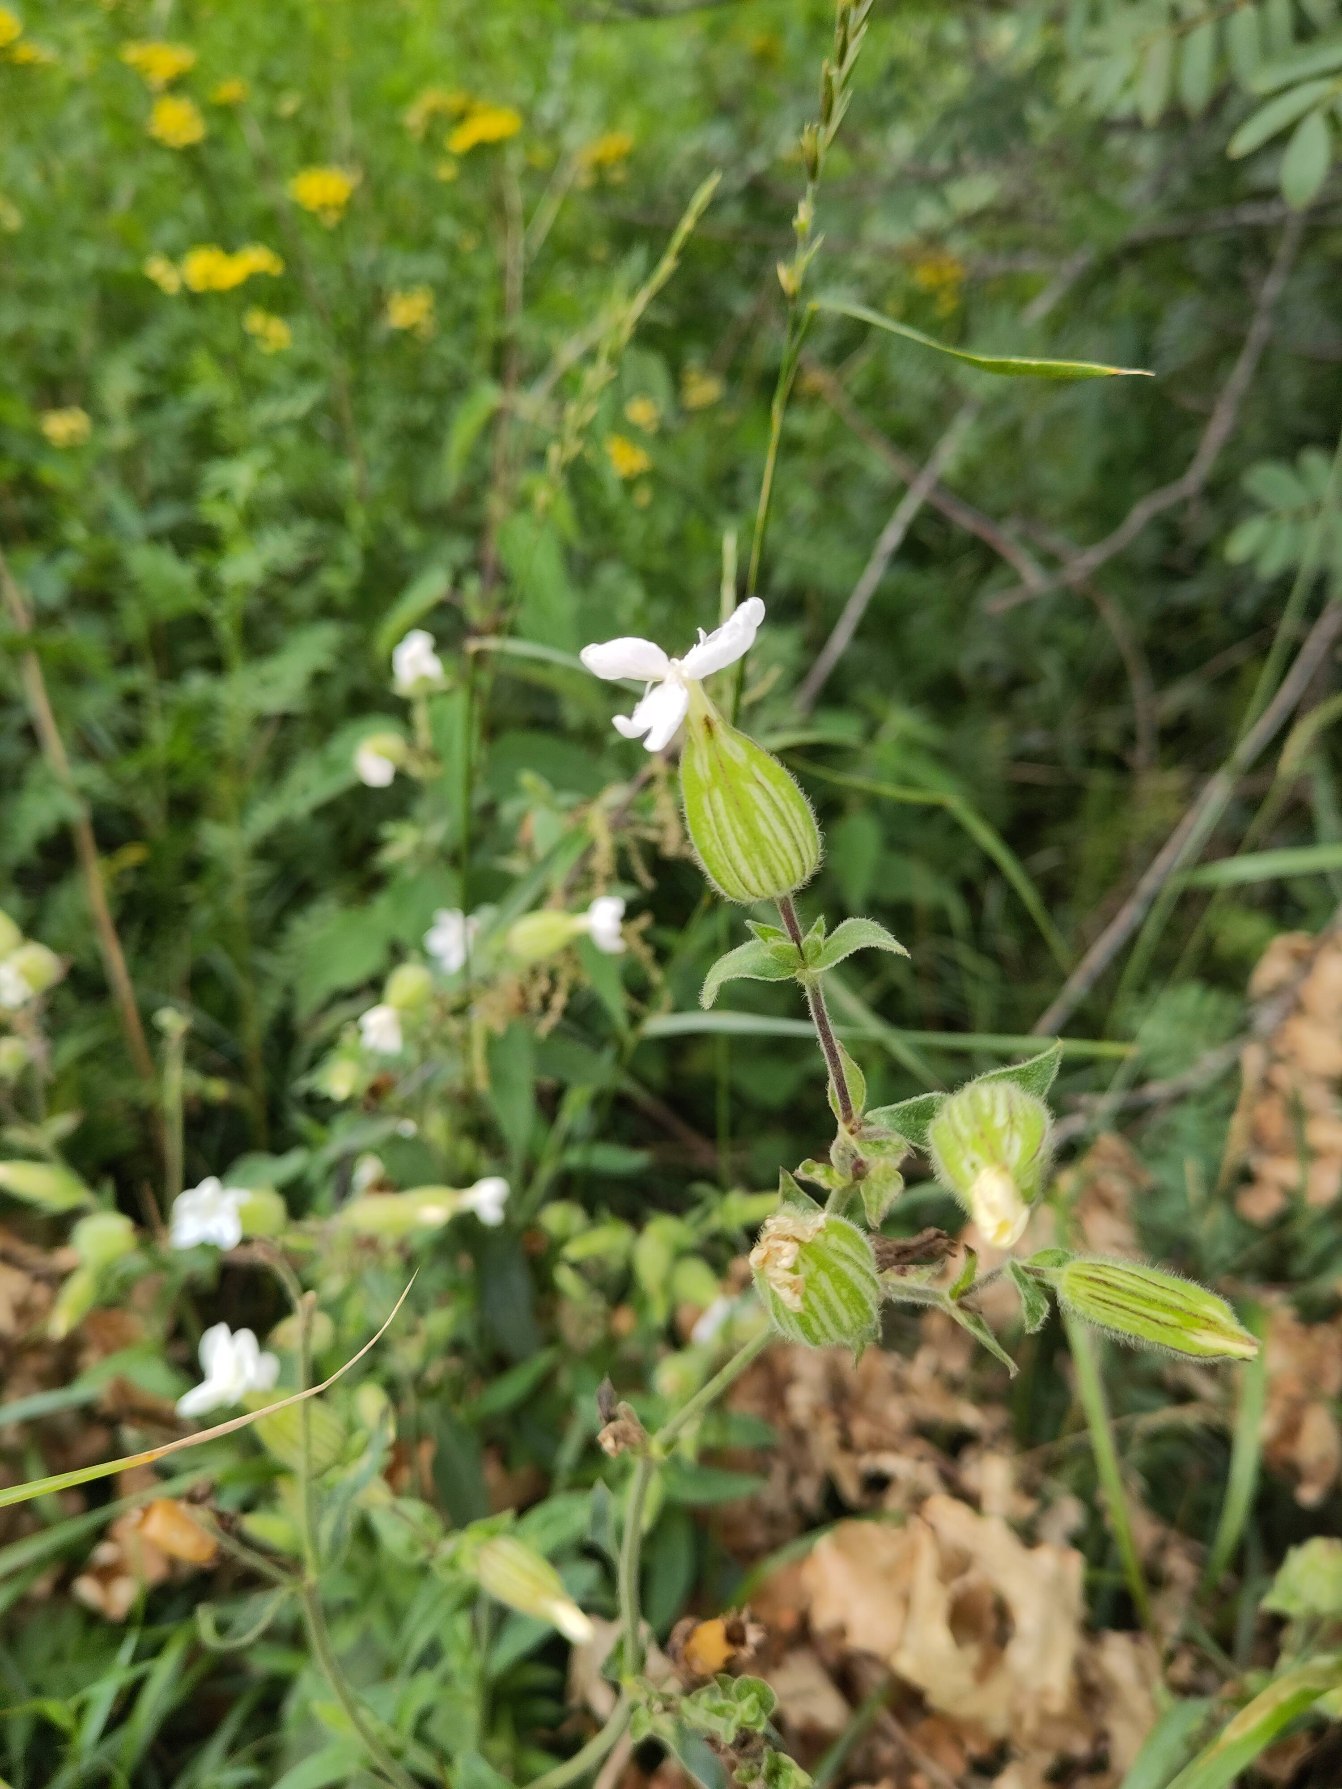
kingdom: Plantae
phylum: Tracheophyta
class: Magnoliopsida
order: Caryophyllales
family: Caryophyllaceae
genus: Silene
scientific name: Silene latifolia
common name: Aftenpragtstjerne
